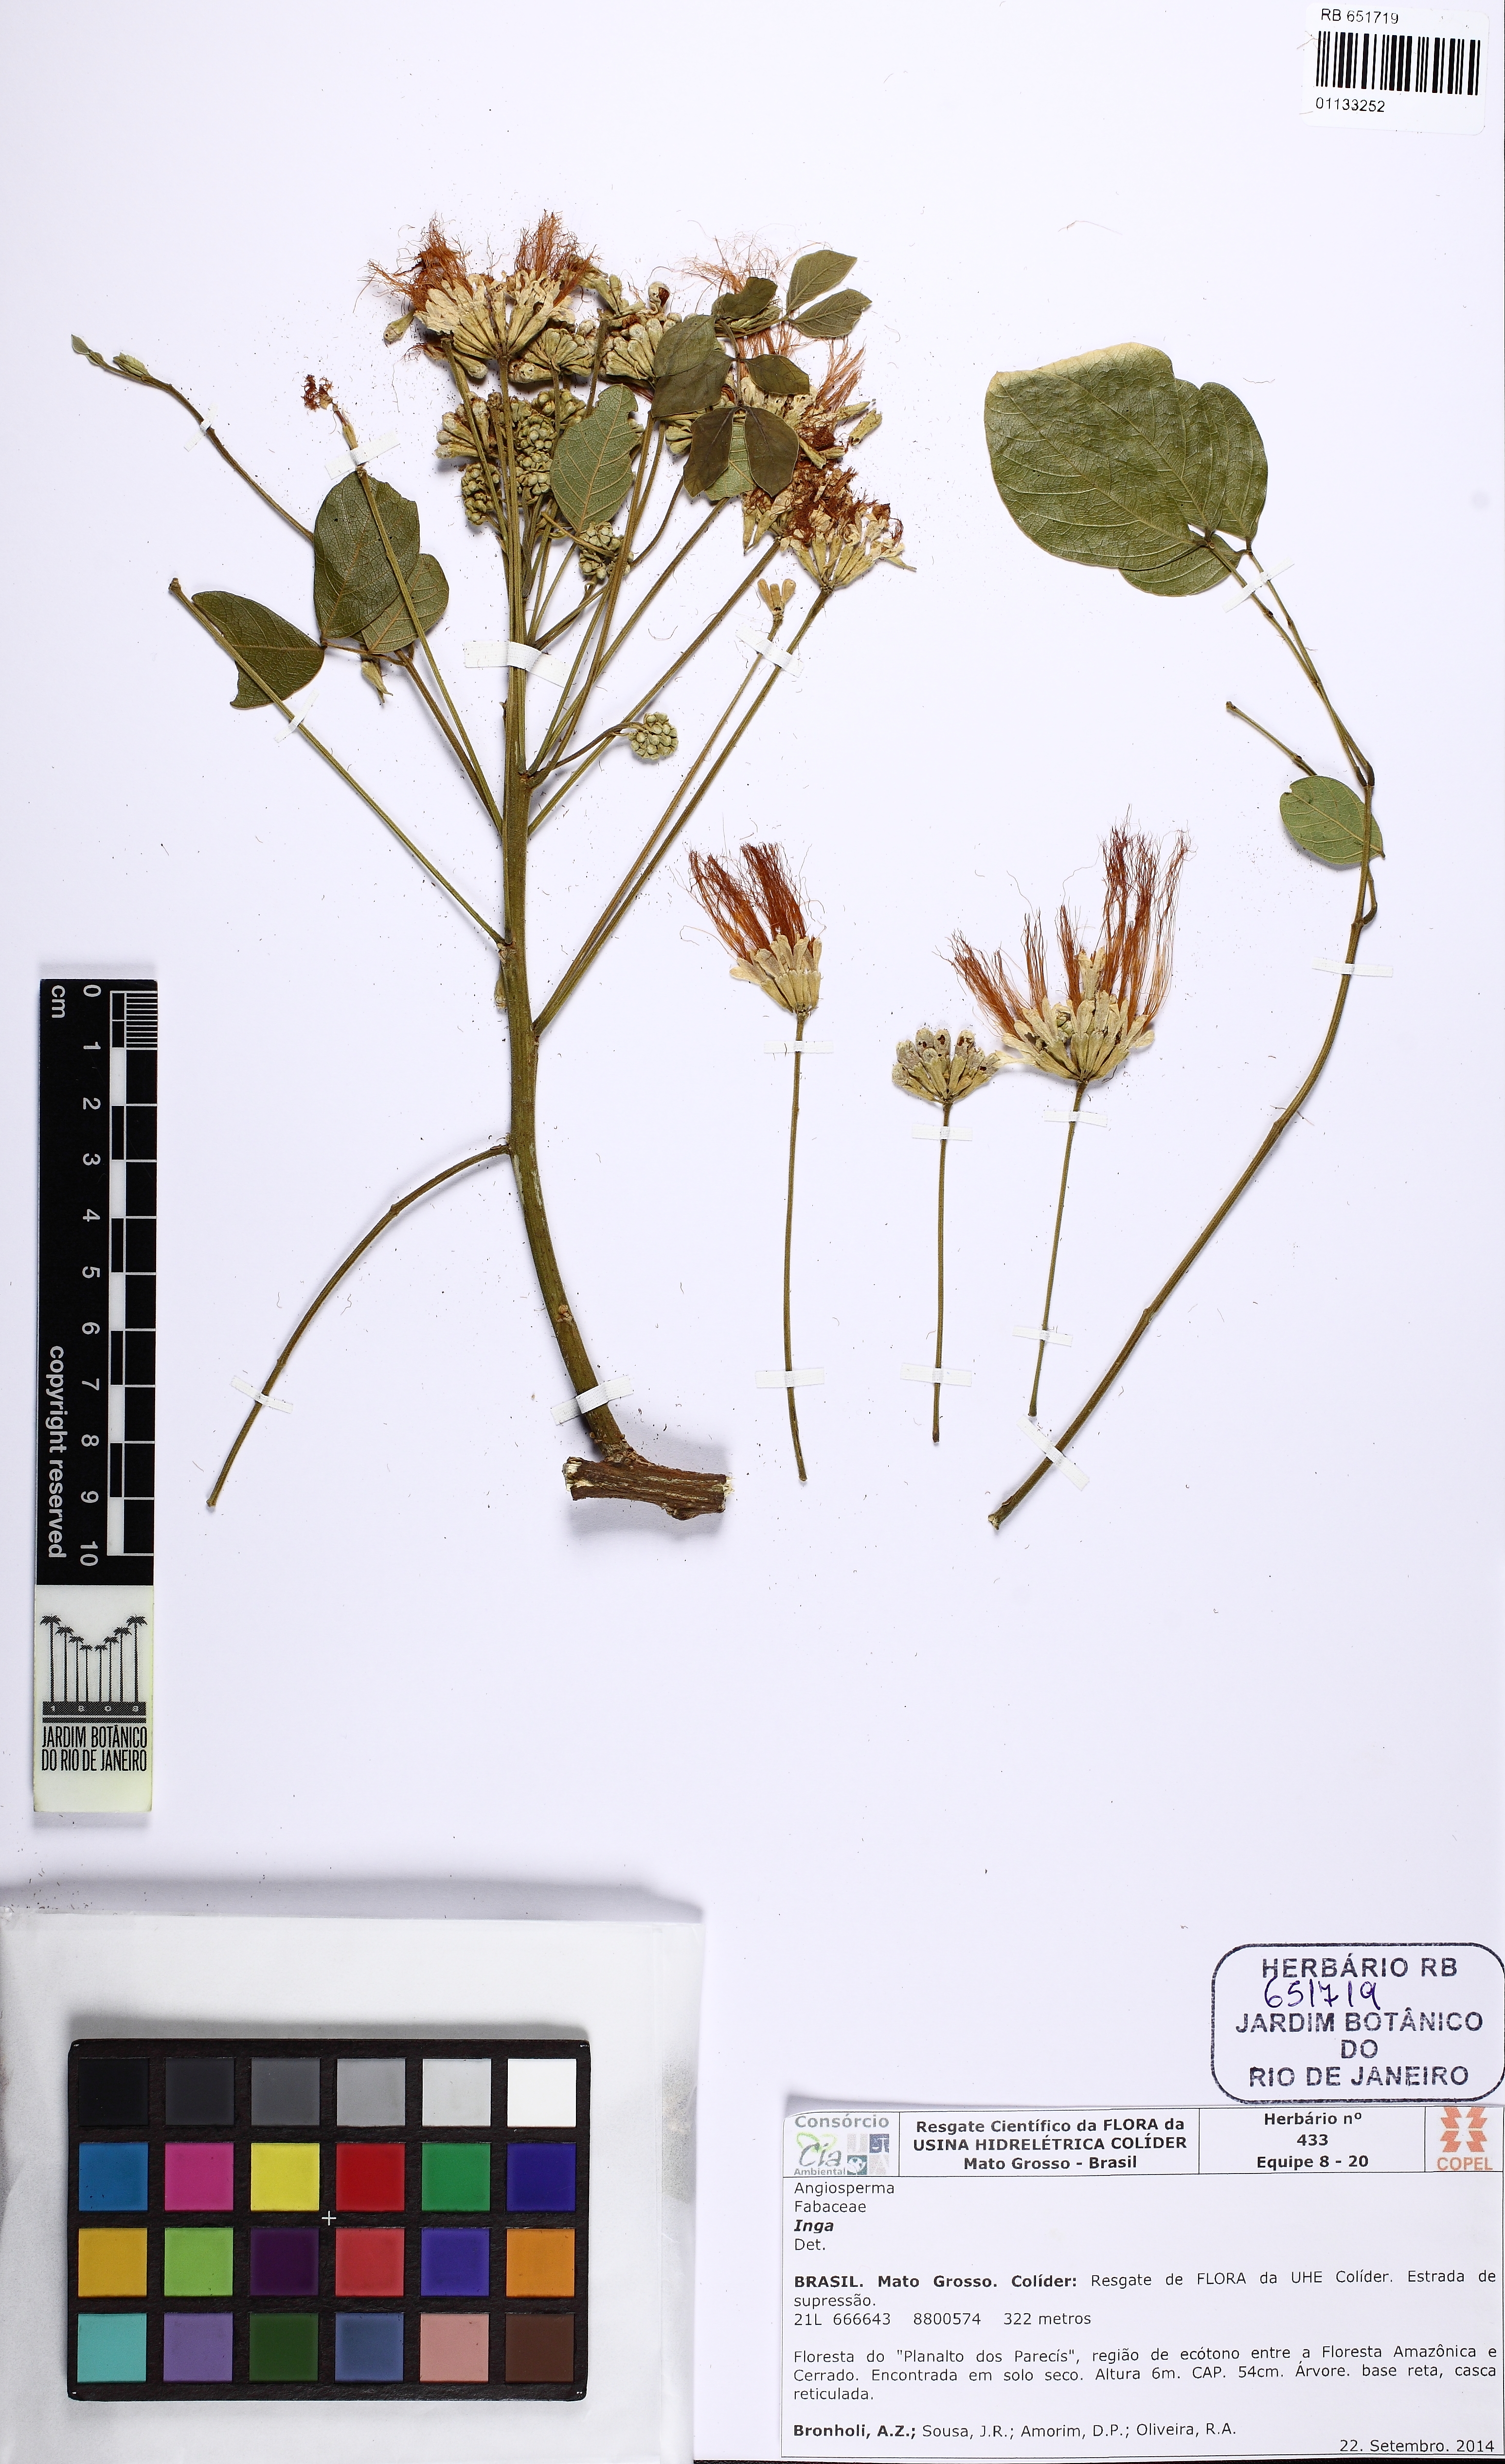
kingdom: Plantae
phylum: Tracheophyta
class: Magnoliopsida
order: Fabales
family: Fabaceae
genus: Samanea
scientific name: Samanea tubulosa
